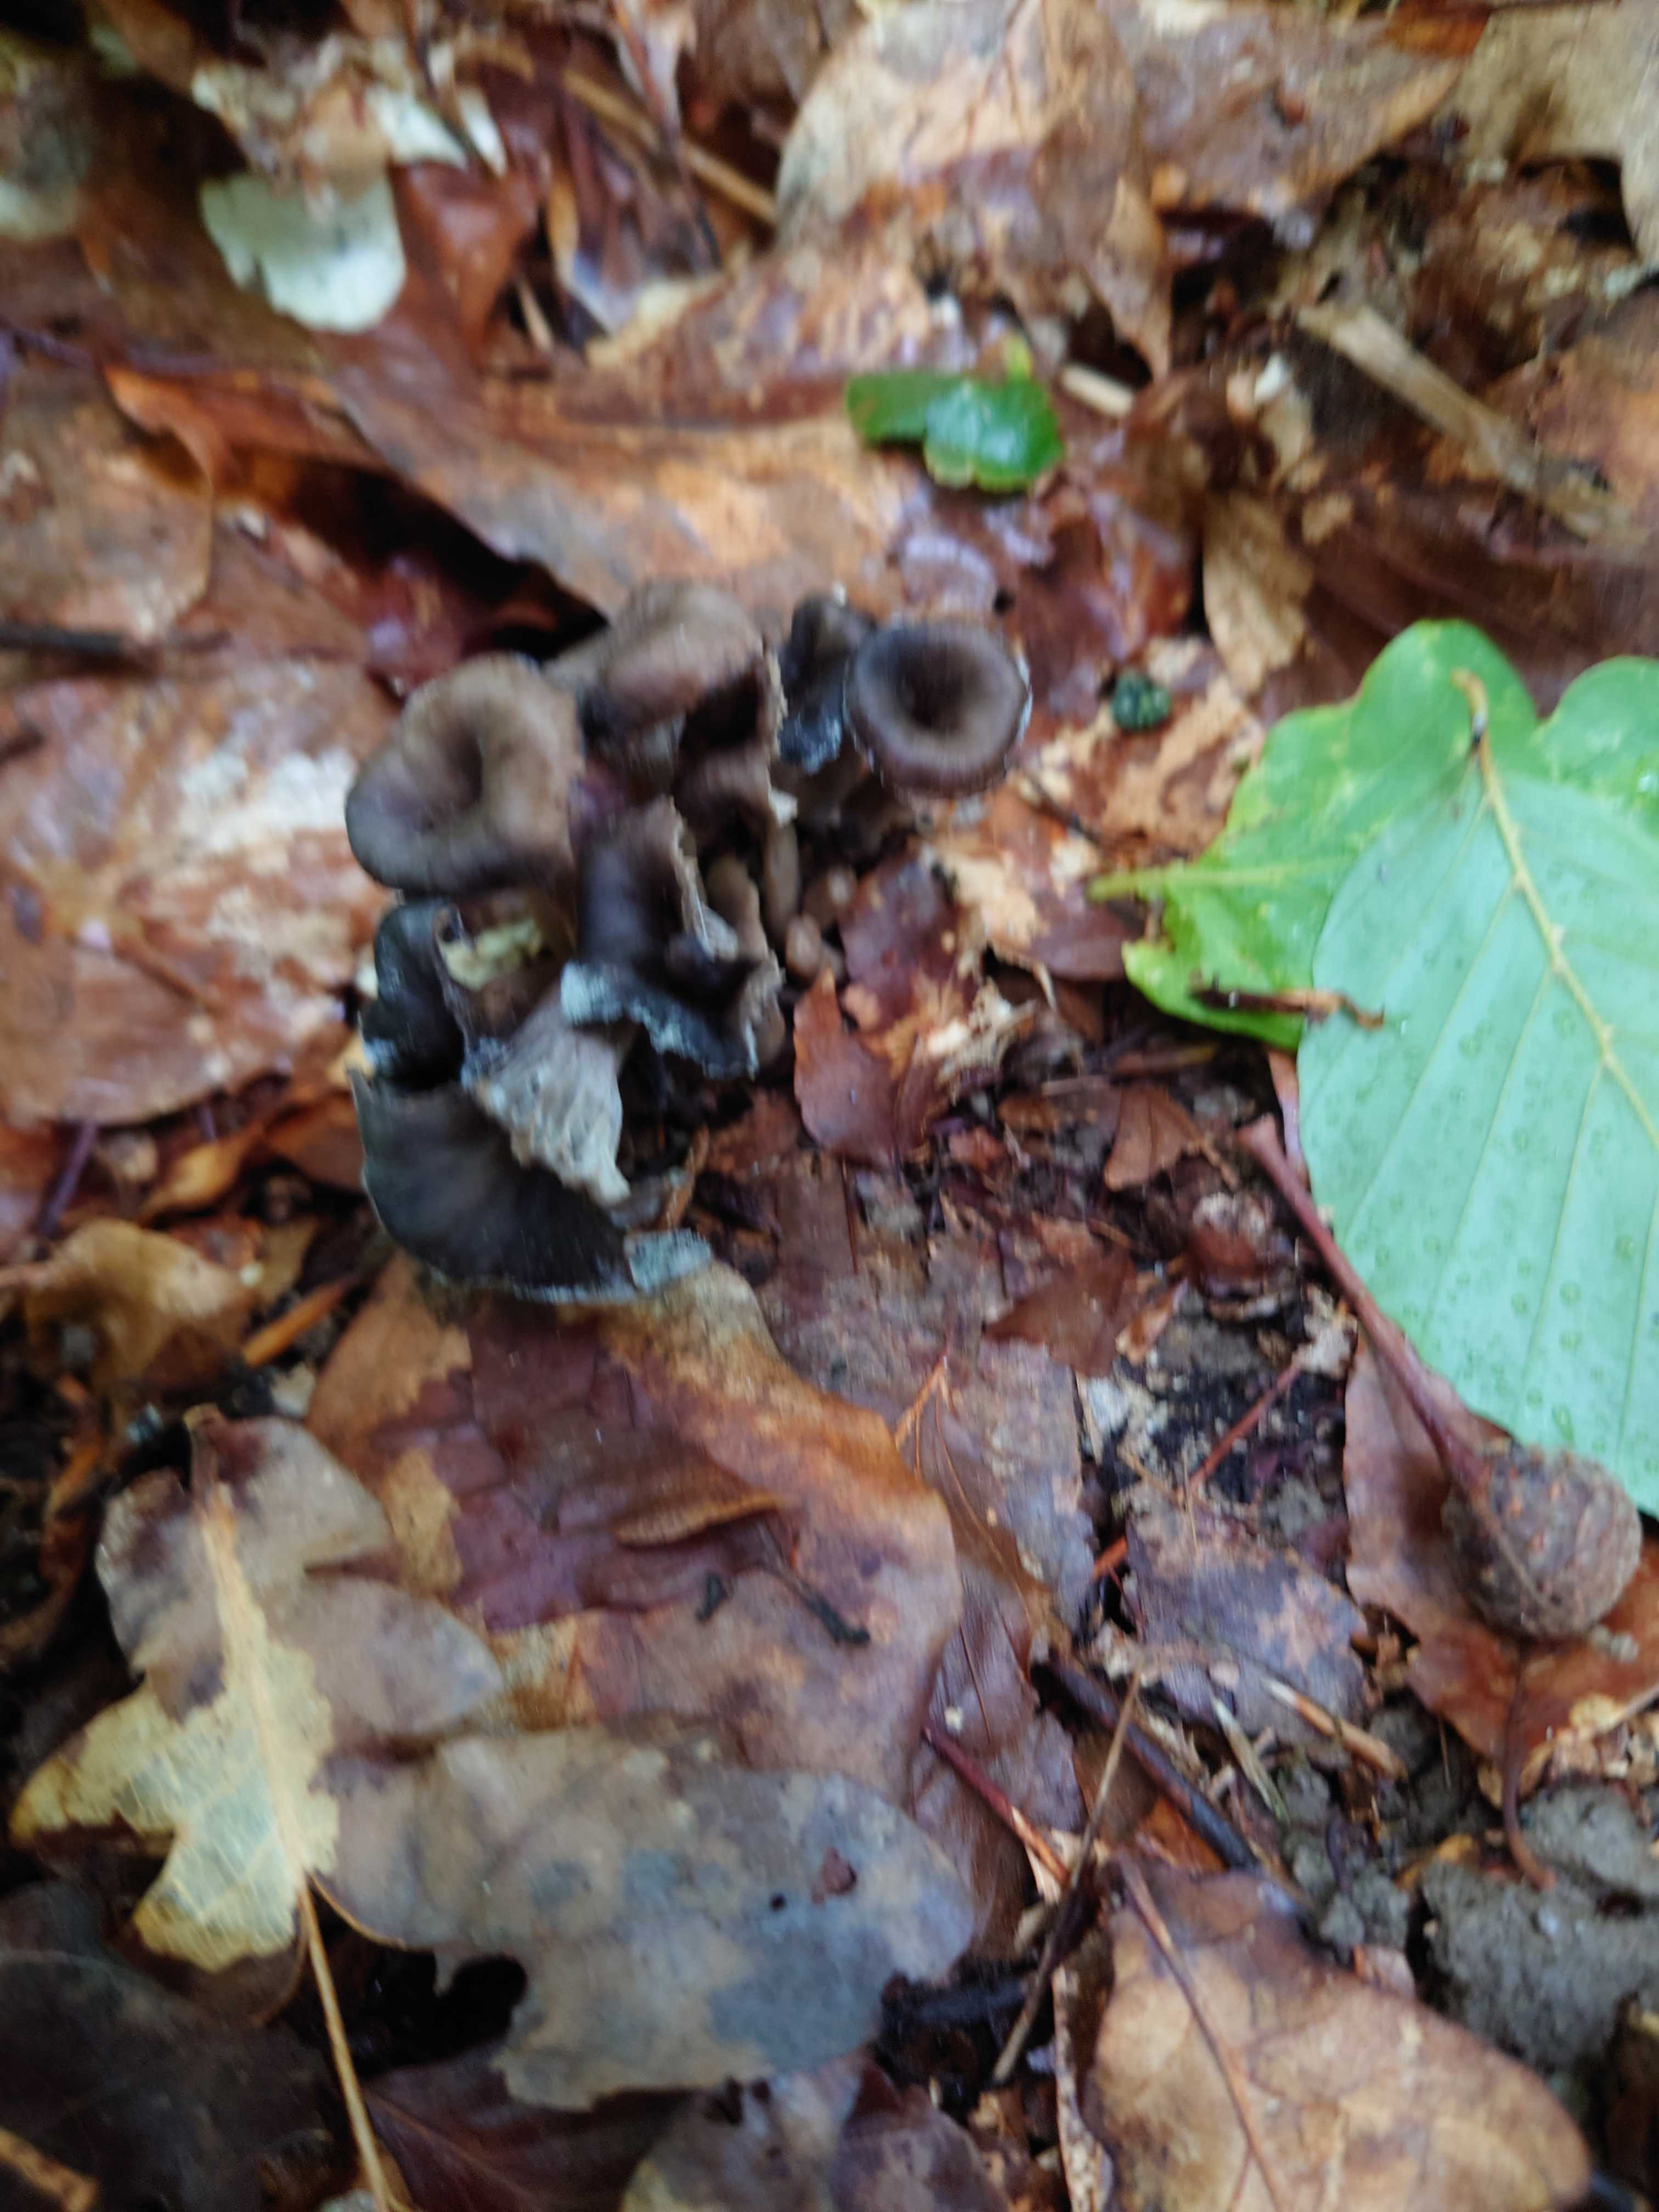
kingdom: Fungi
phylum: Basidiomycota
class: Agaricomycetes
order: Cantharellales
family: Hydnaceae
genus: Craterellus
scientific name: Craterellus cornucopioides
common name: trompetsvamp
